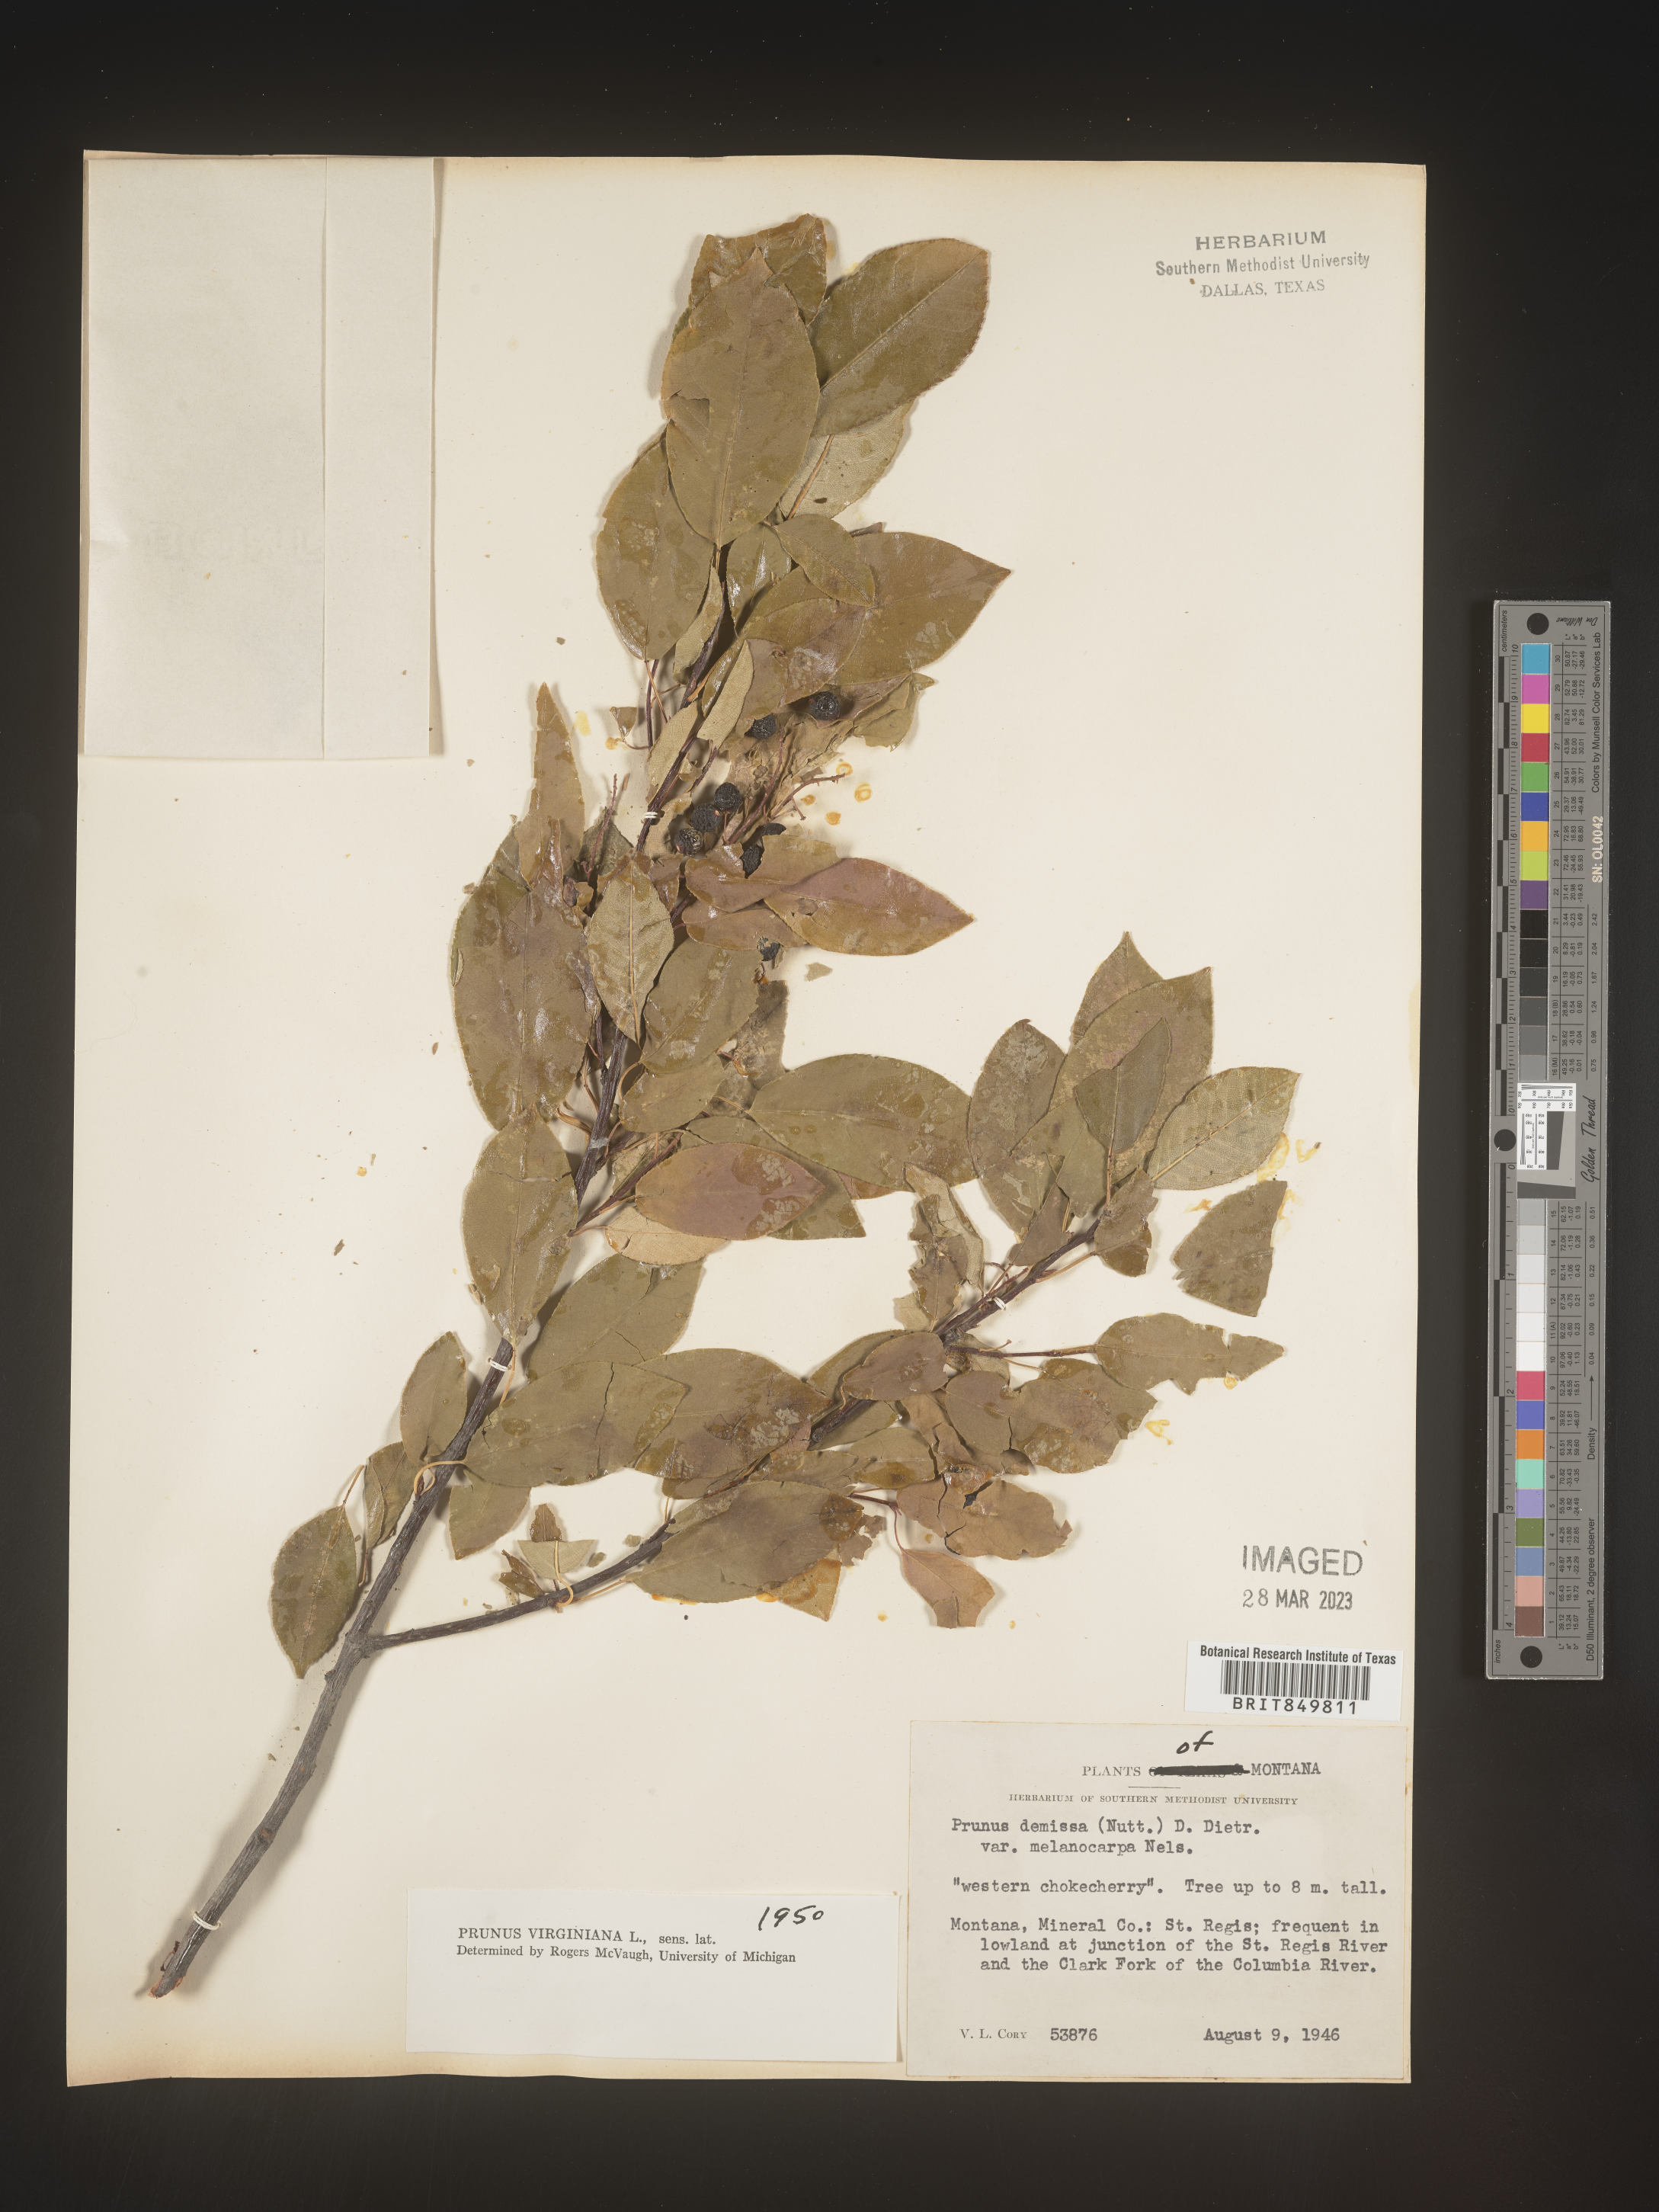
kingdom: Plantae
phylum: Tracheophyta
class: Magnoliopsida
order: Rosales
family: Rosaceae
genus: Prunus
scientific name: Prunus virginiana
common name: Chokecherry
